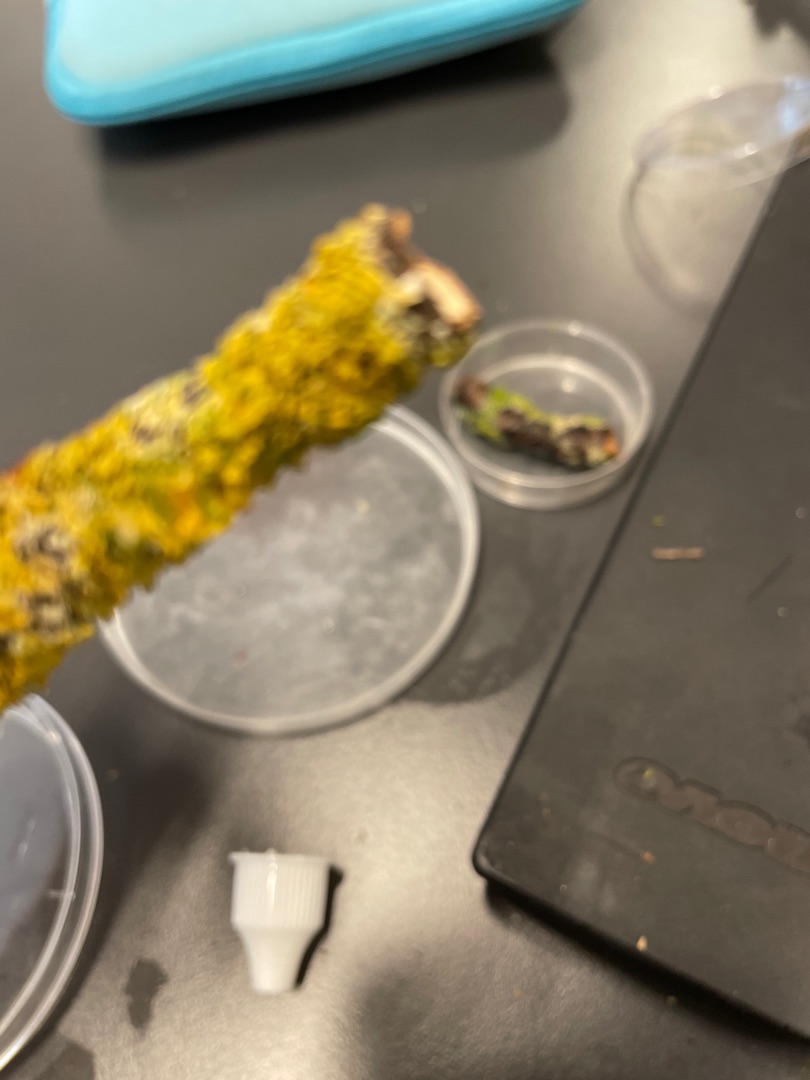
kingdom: Fungi
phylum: Ascomycota
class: Lecanoromycetes
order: Teloschistales
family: Teloschistaceae
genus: Xanthoria
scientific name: Xanthoria parietina
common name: Almindelig væggelav
